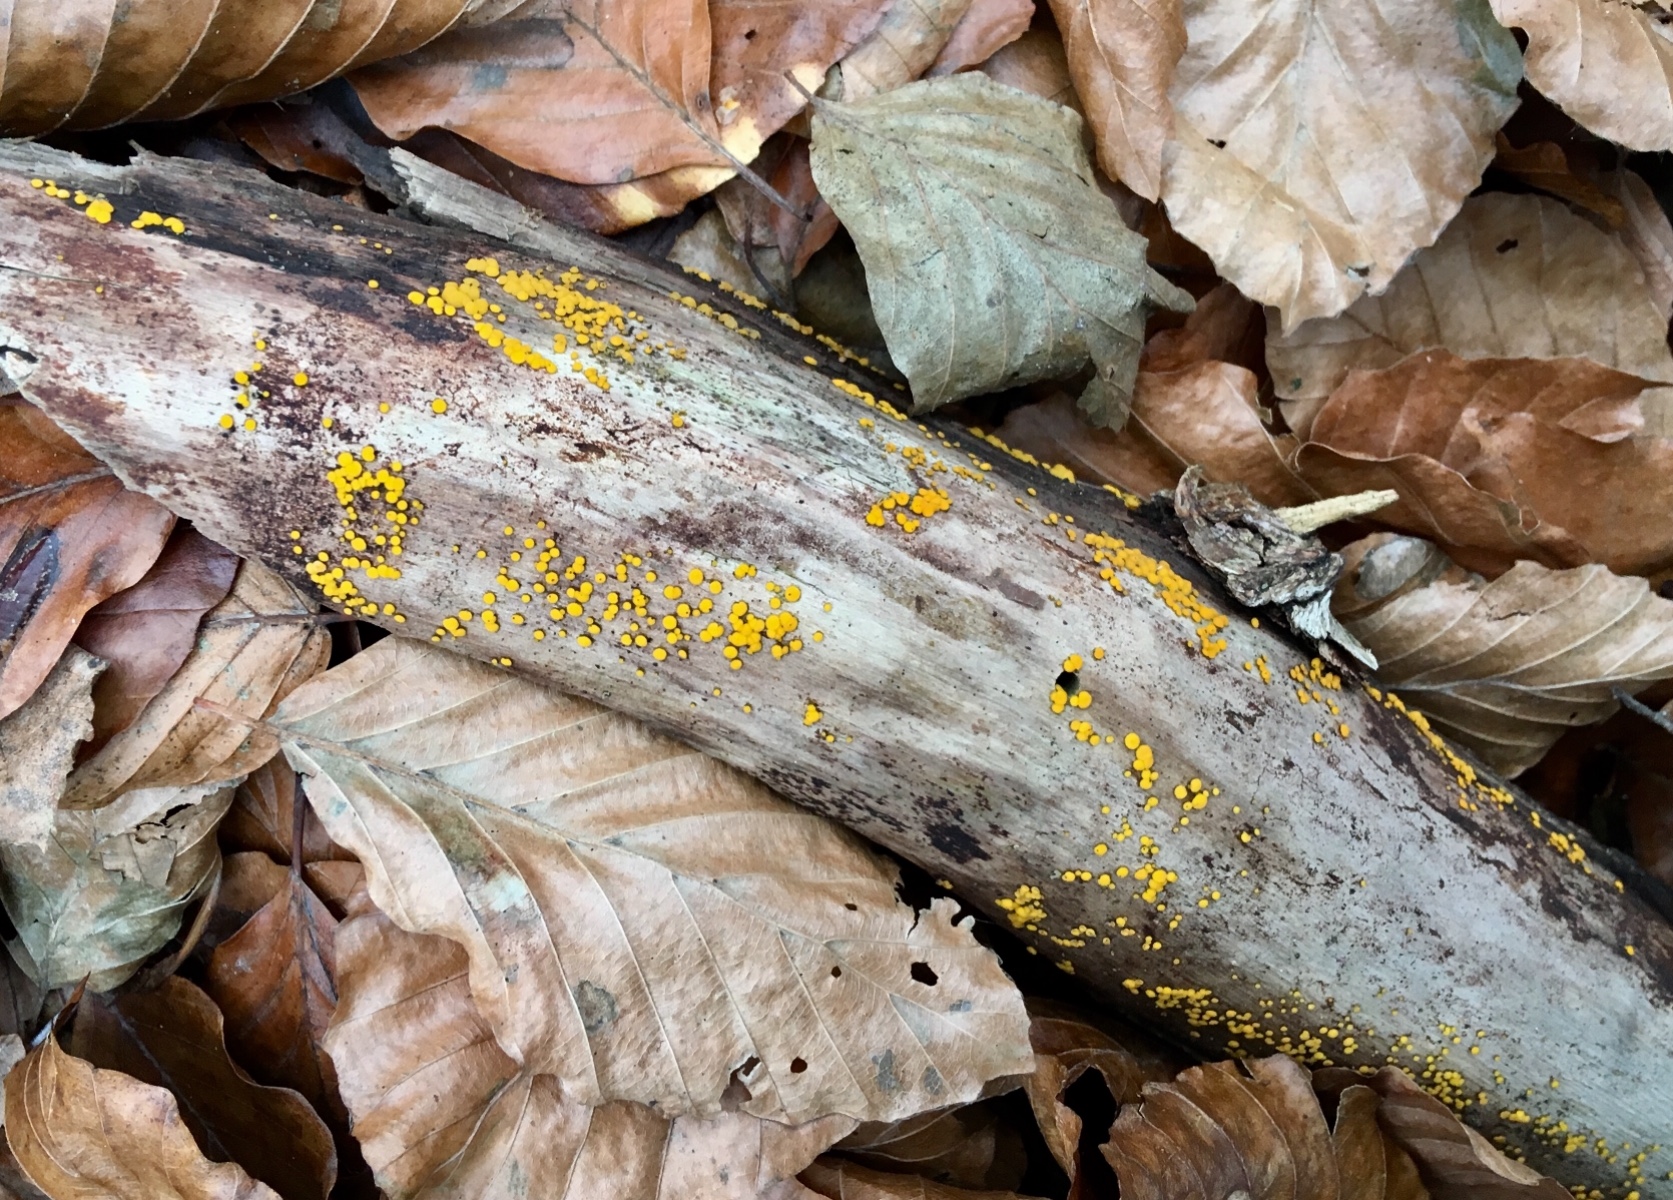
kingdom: Fungi
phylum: Ascomycota
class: Leotiomycetes
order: Helotiales
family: Pezizellaceae
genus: Calycina
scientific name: Calycina citrina
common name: almindelig gulskive
